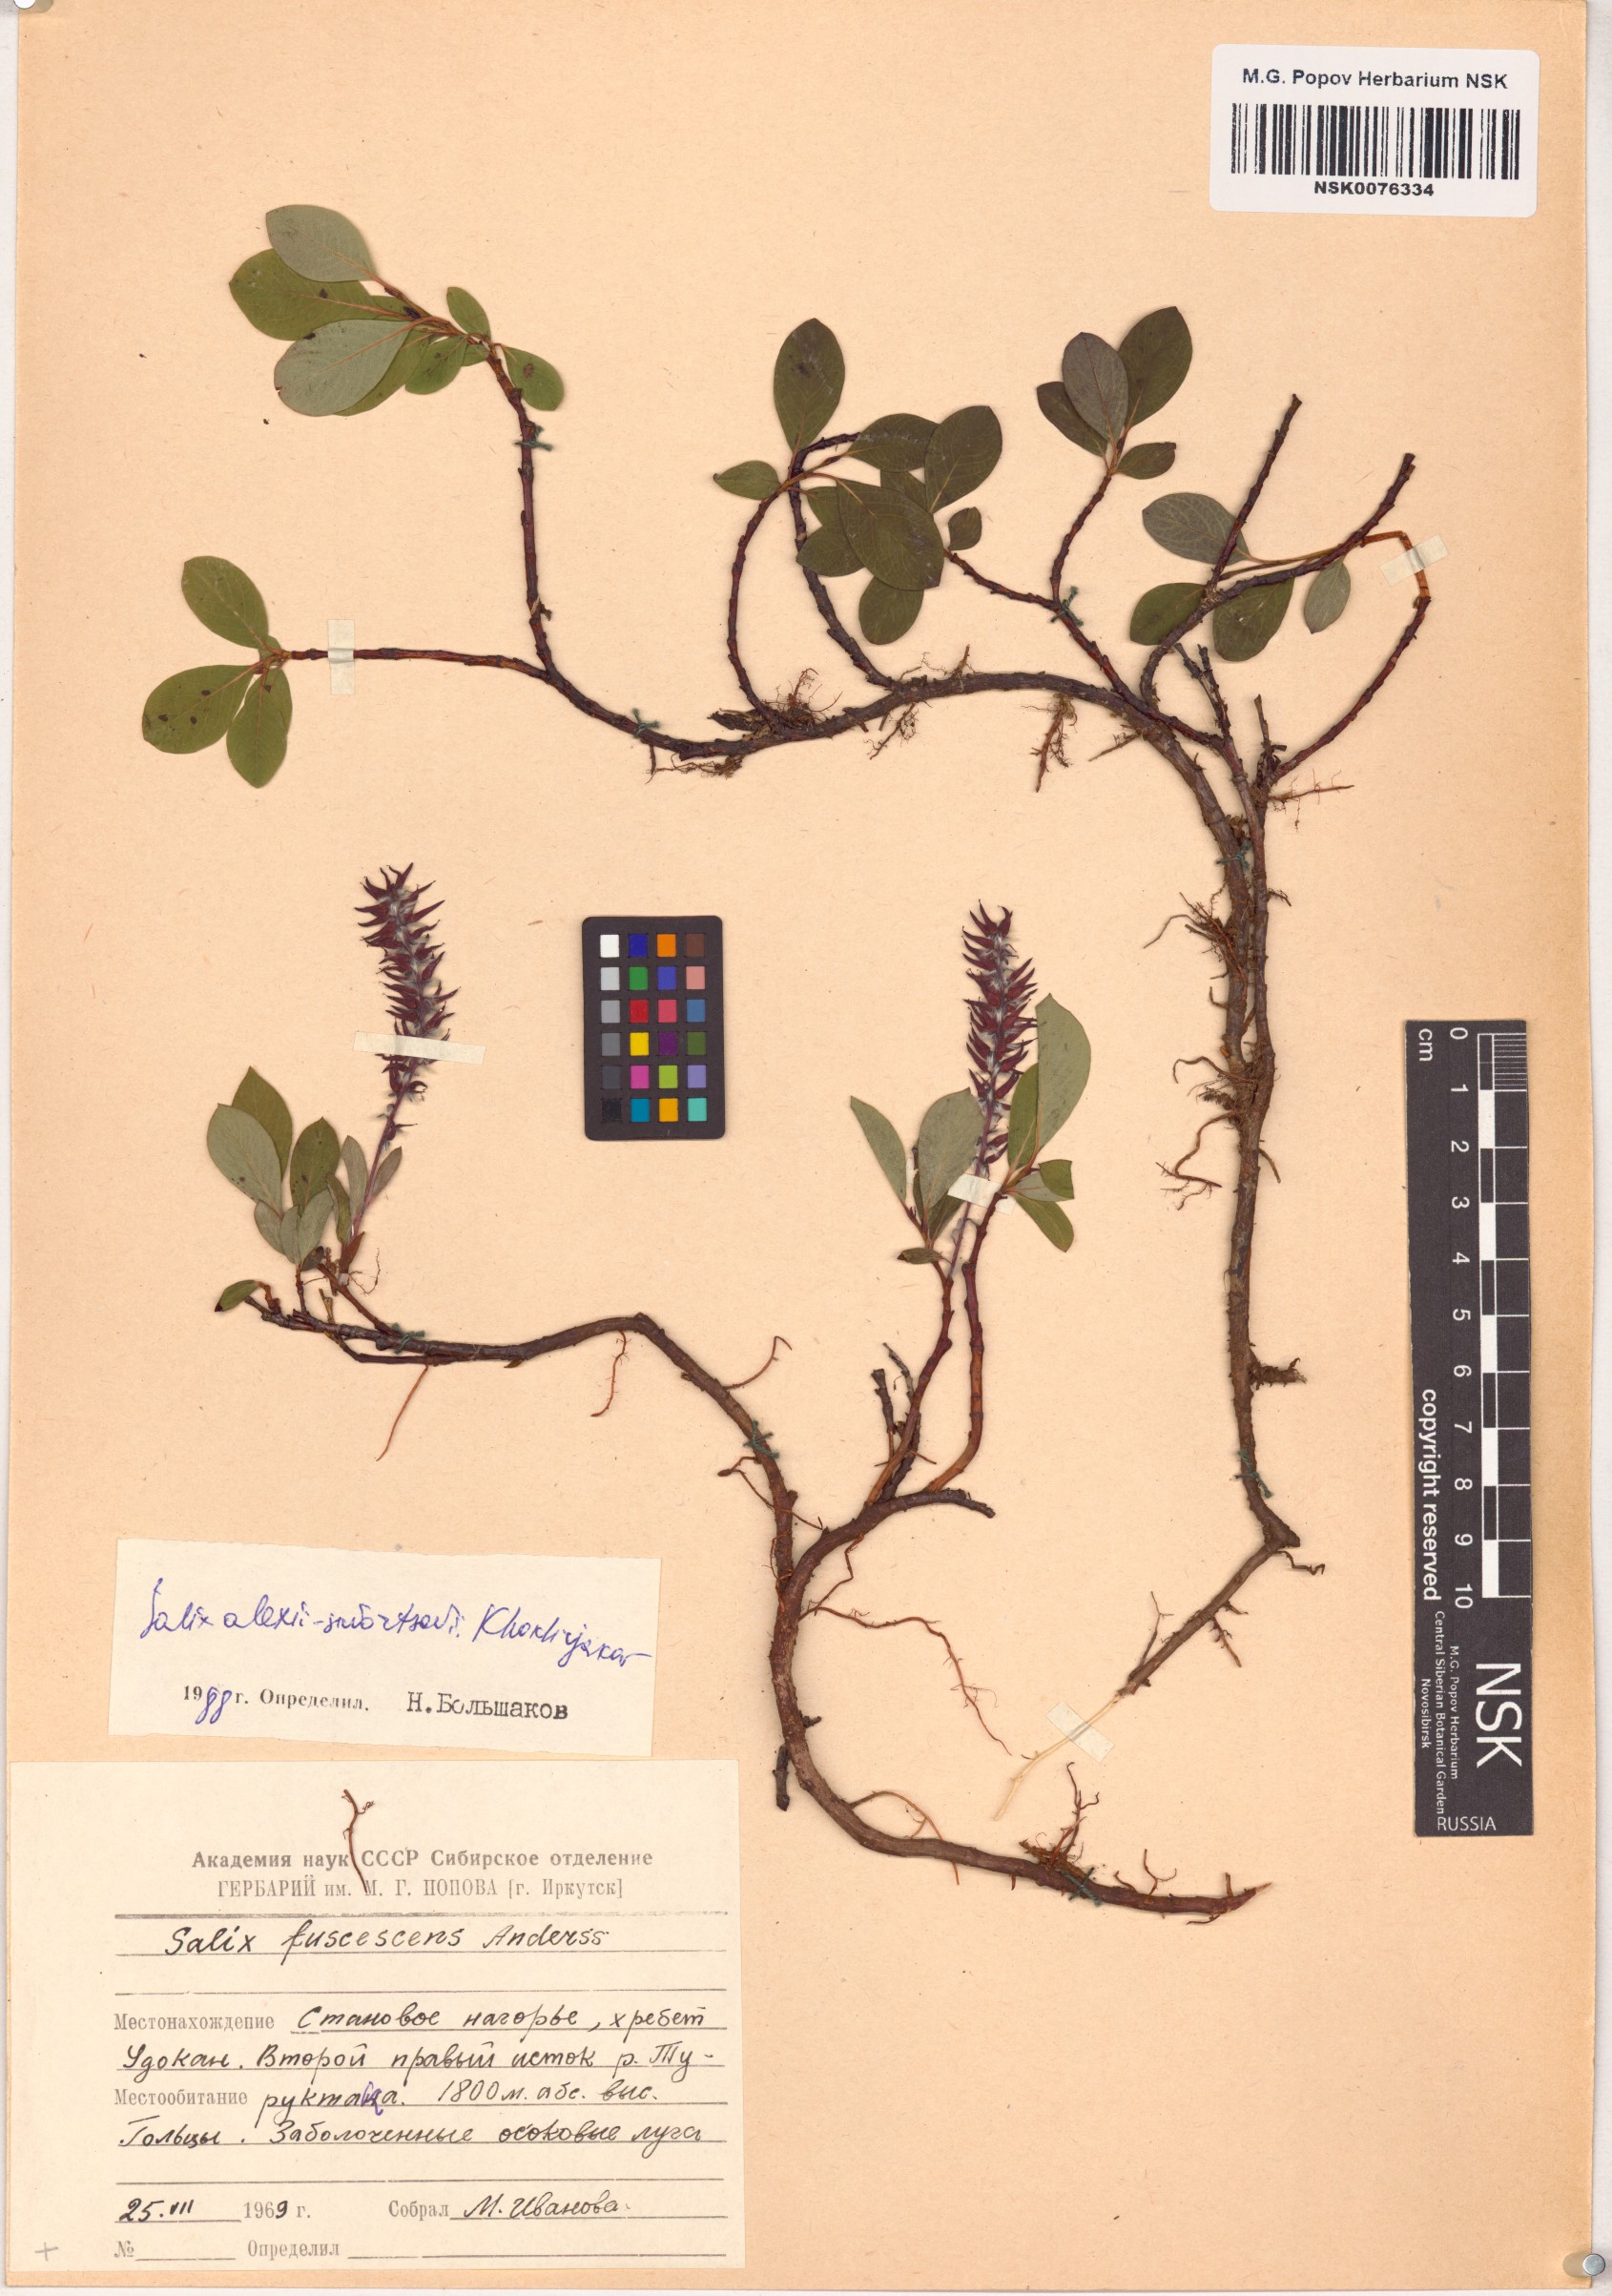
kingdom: Plantae
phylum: Tracheophyta
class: Magnoliopsida
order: Malpighiales
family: Salicaceae
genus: Salix
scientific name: Salix alexii-skvortzovii
